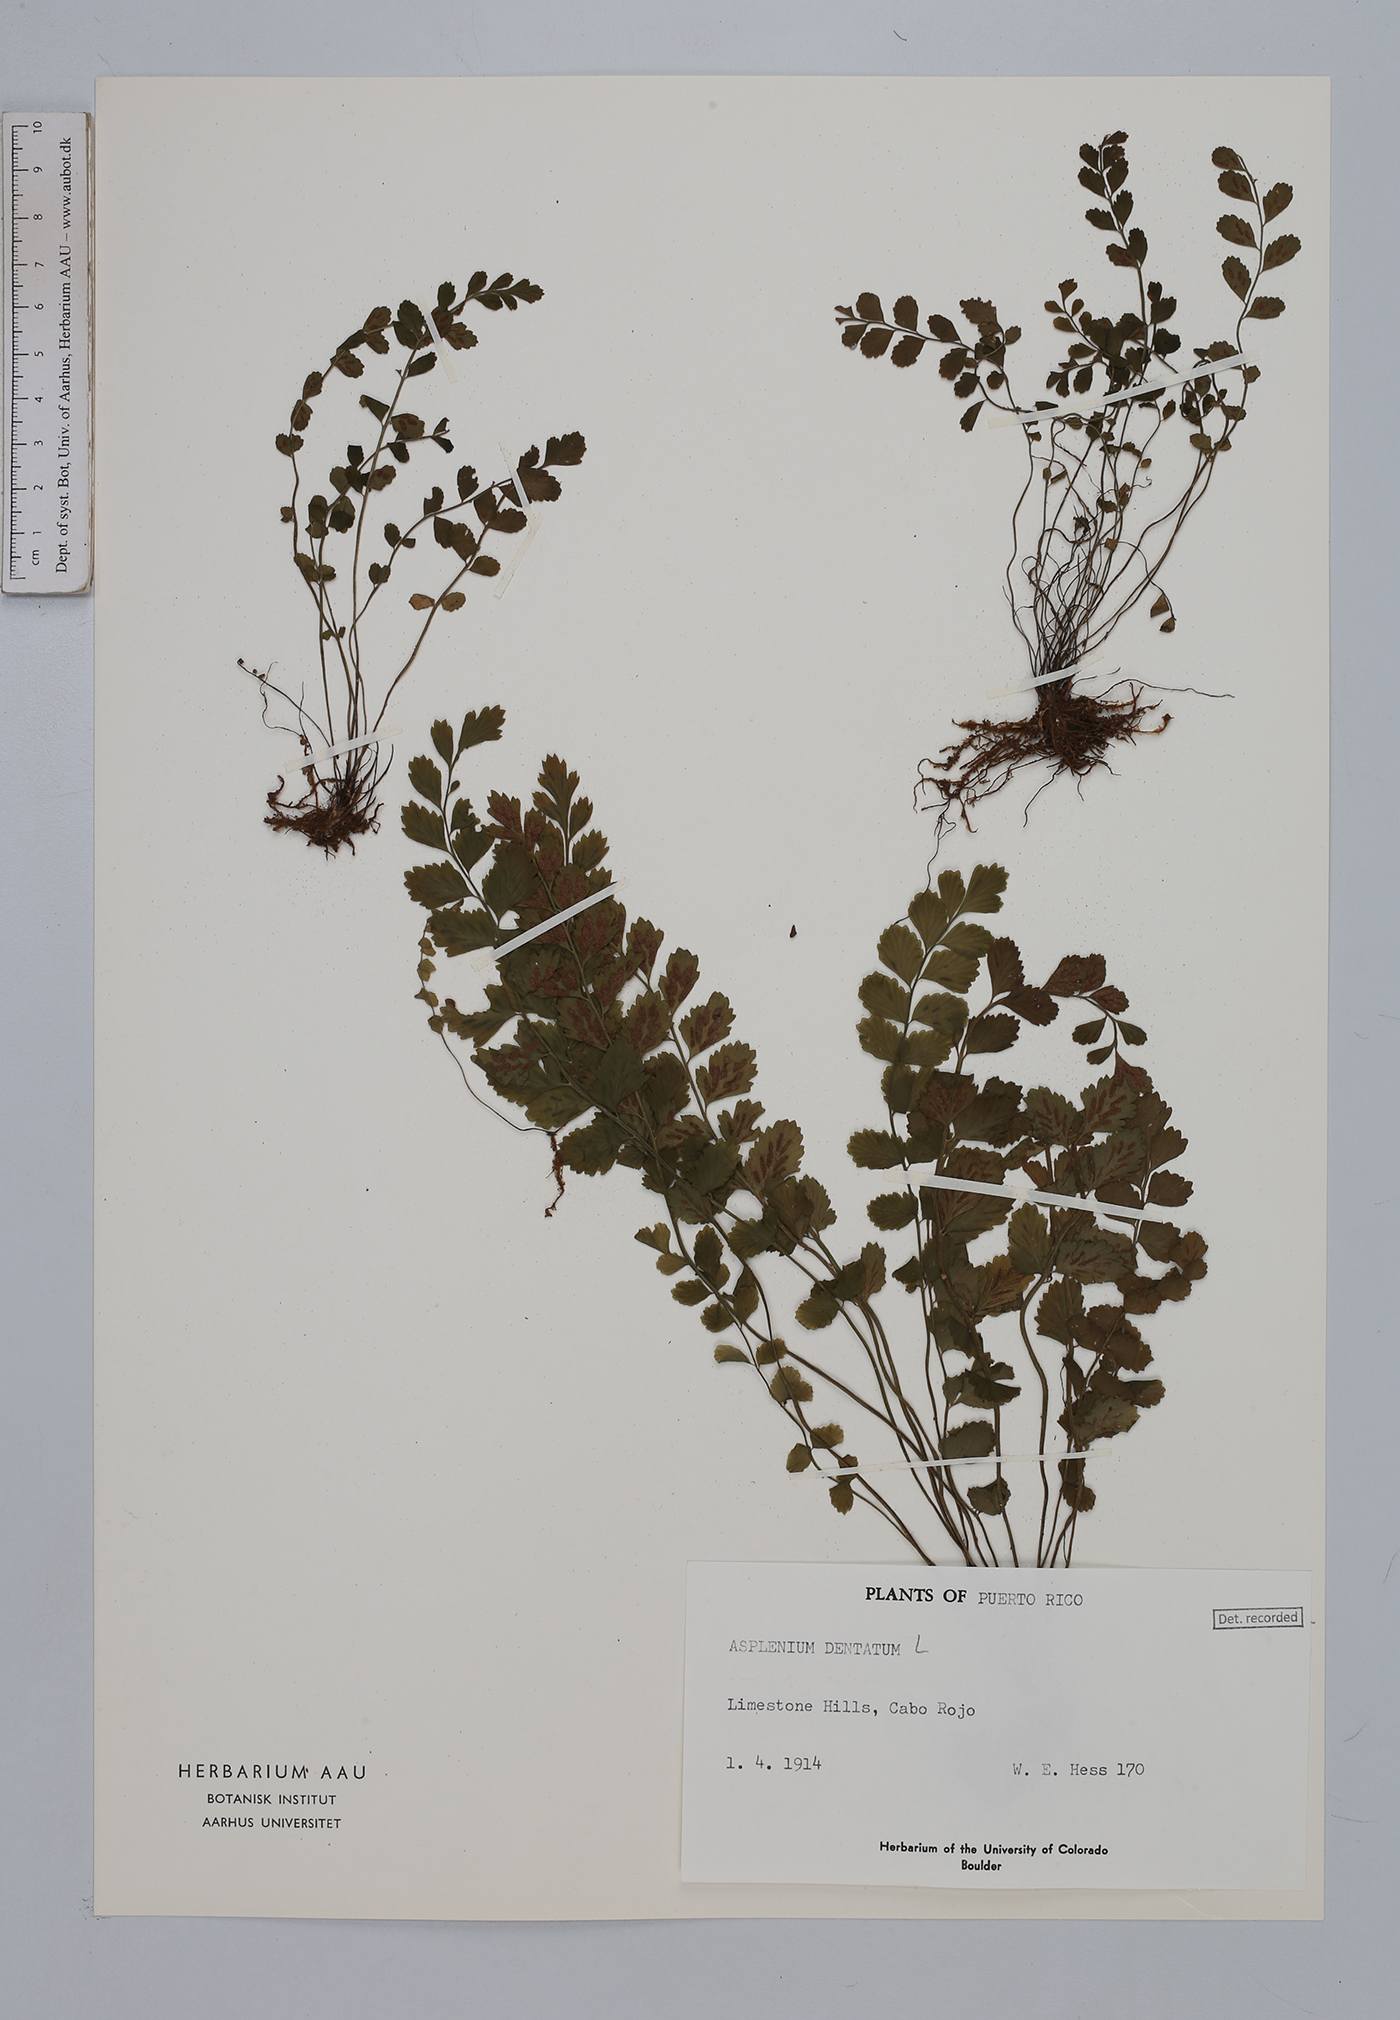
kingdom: Plantae
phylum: Tracheophyta
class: Polypodiopsida
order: Polypodiales
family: Aspleniaceae
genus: Asplenium
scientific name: Asplenium dentatum
